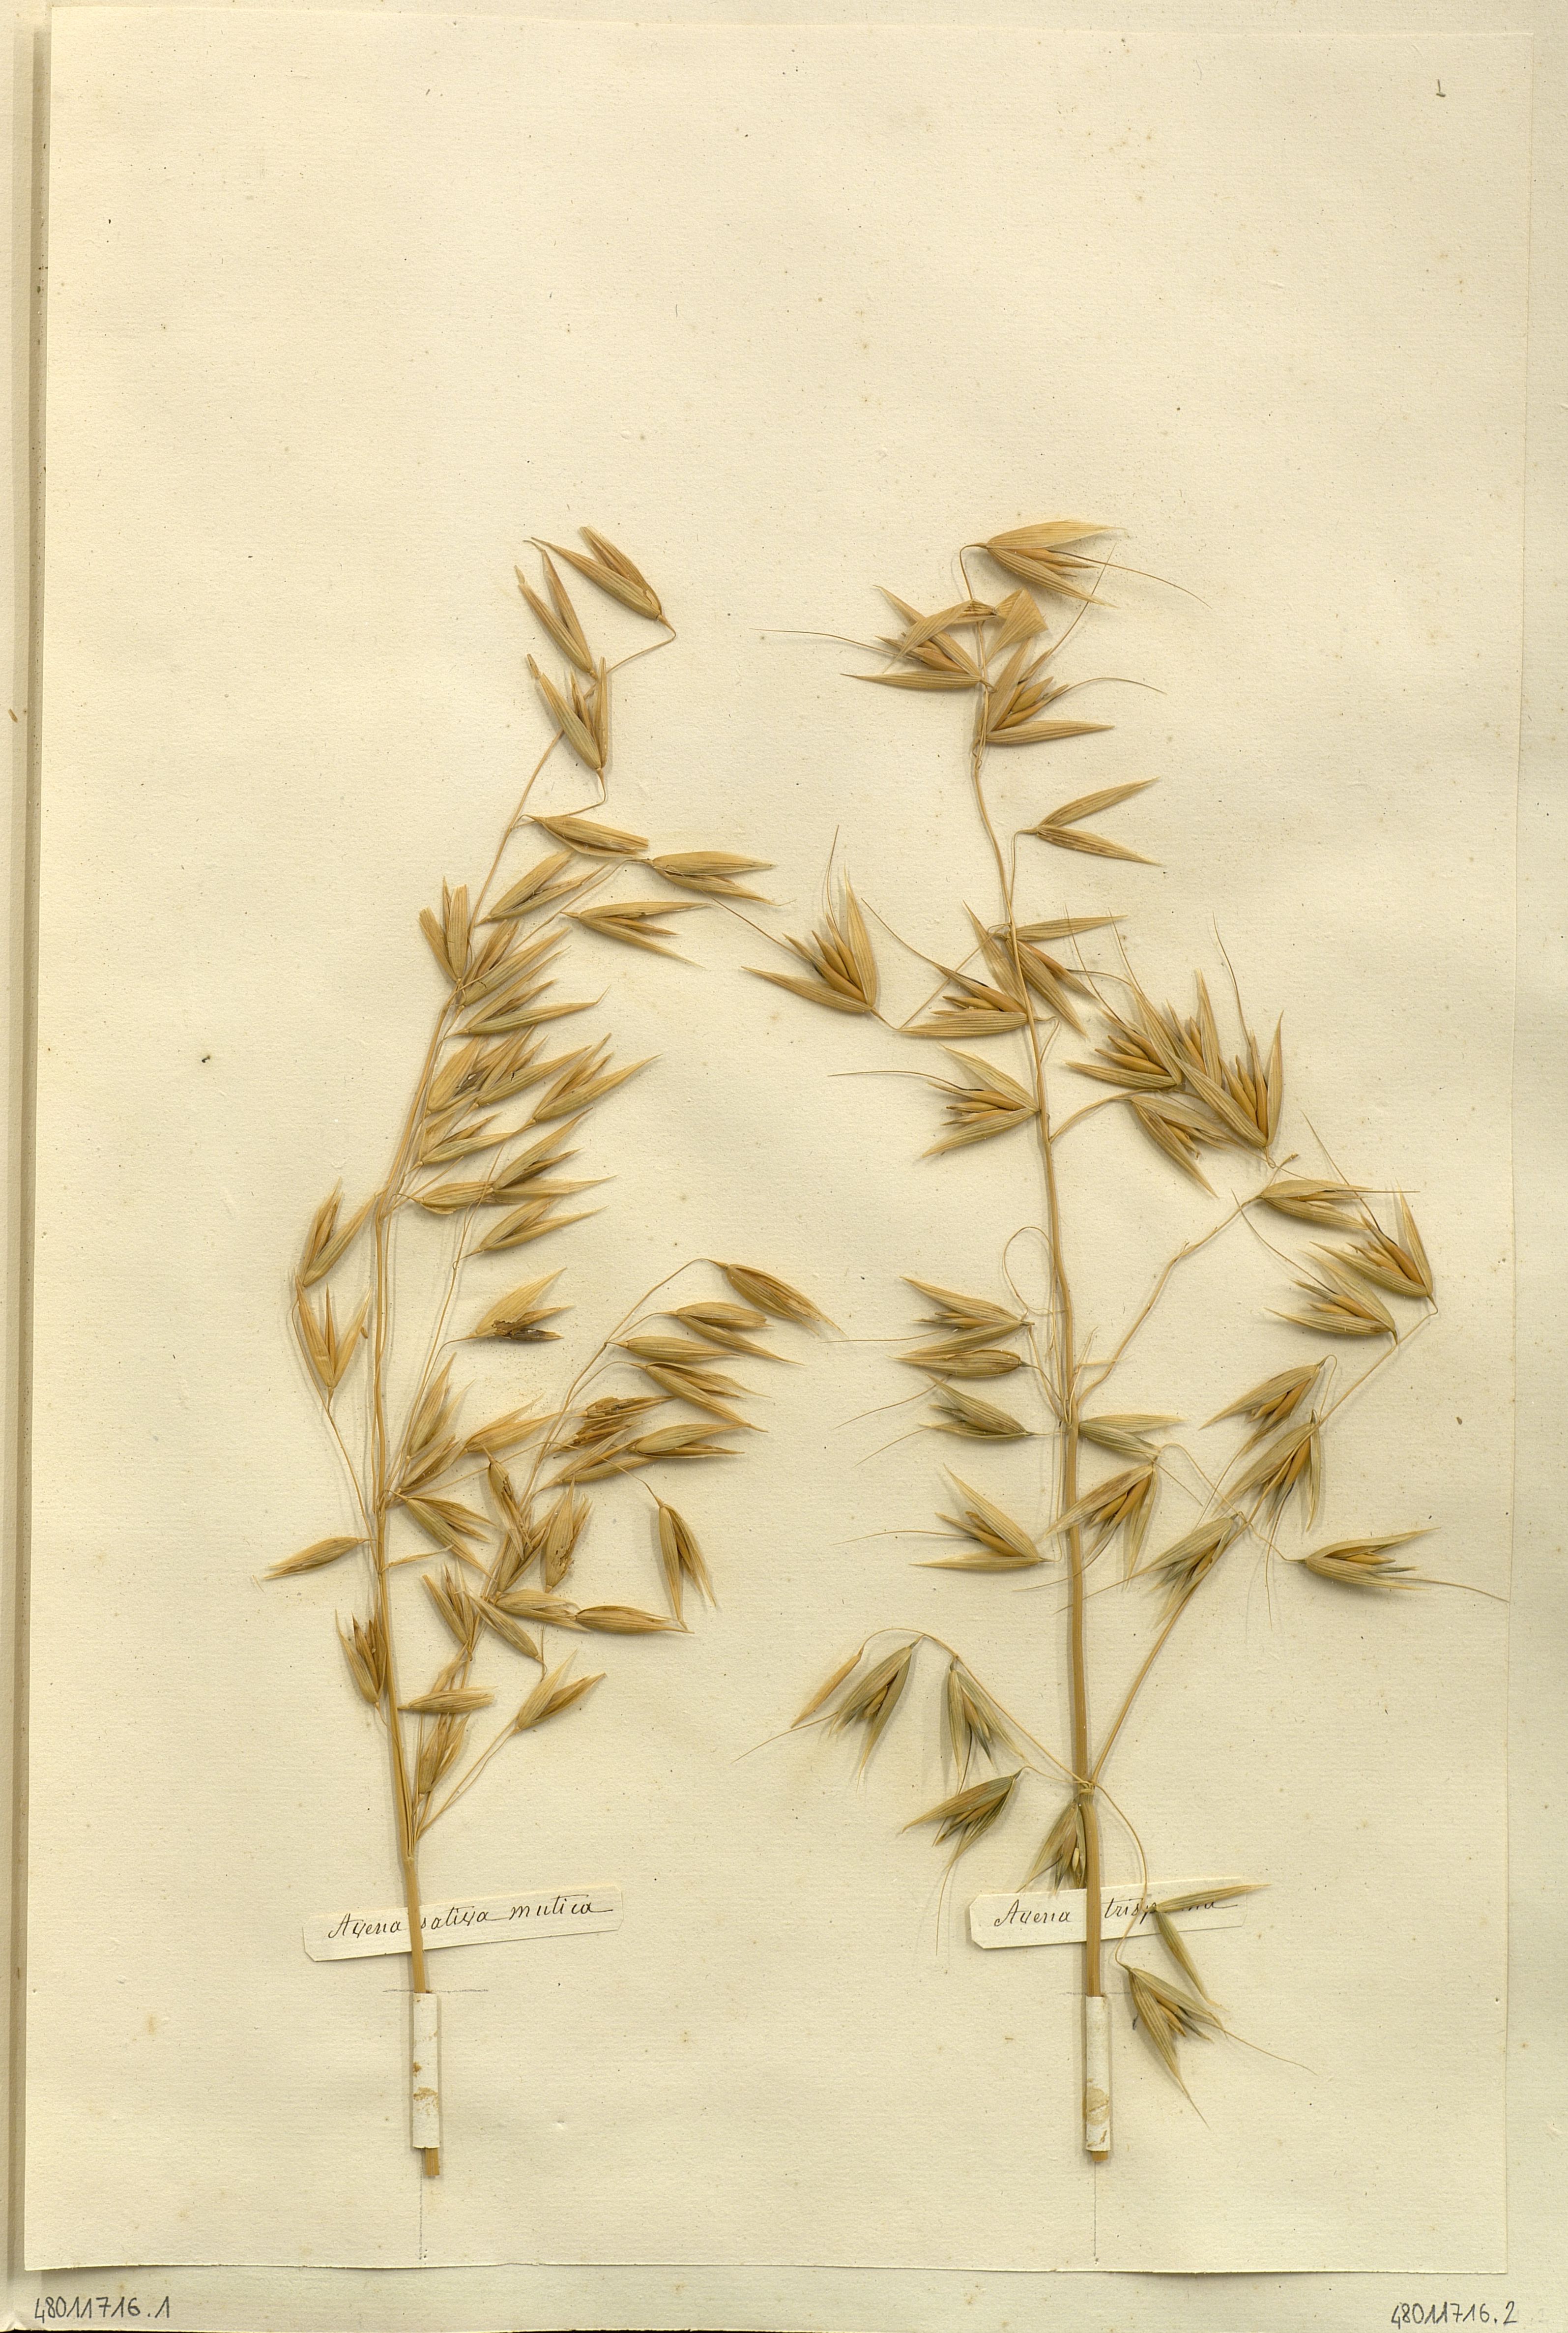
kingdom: Plantae
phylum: Tracheophyta
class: Liliopsida
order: Poales
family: Poaceae
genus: Avena
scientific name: Avena sativa
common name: Oat
